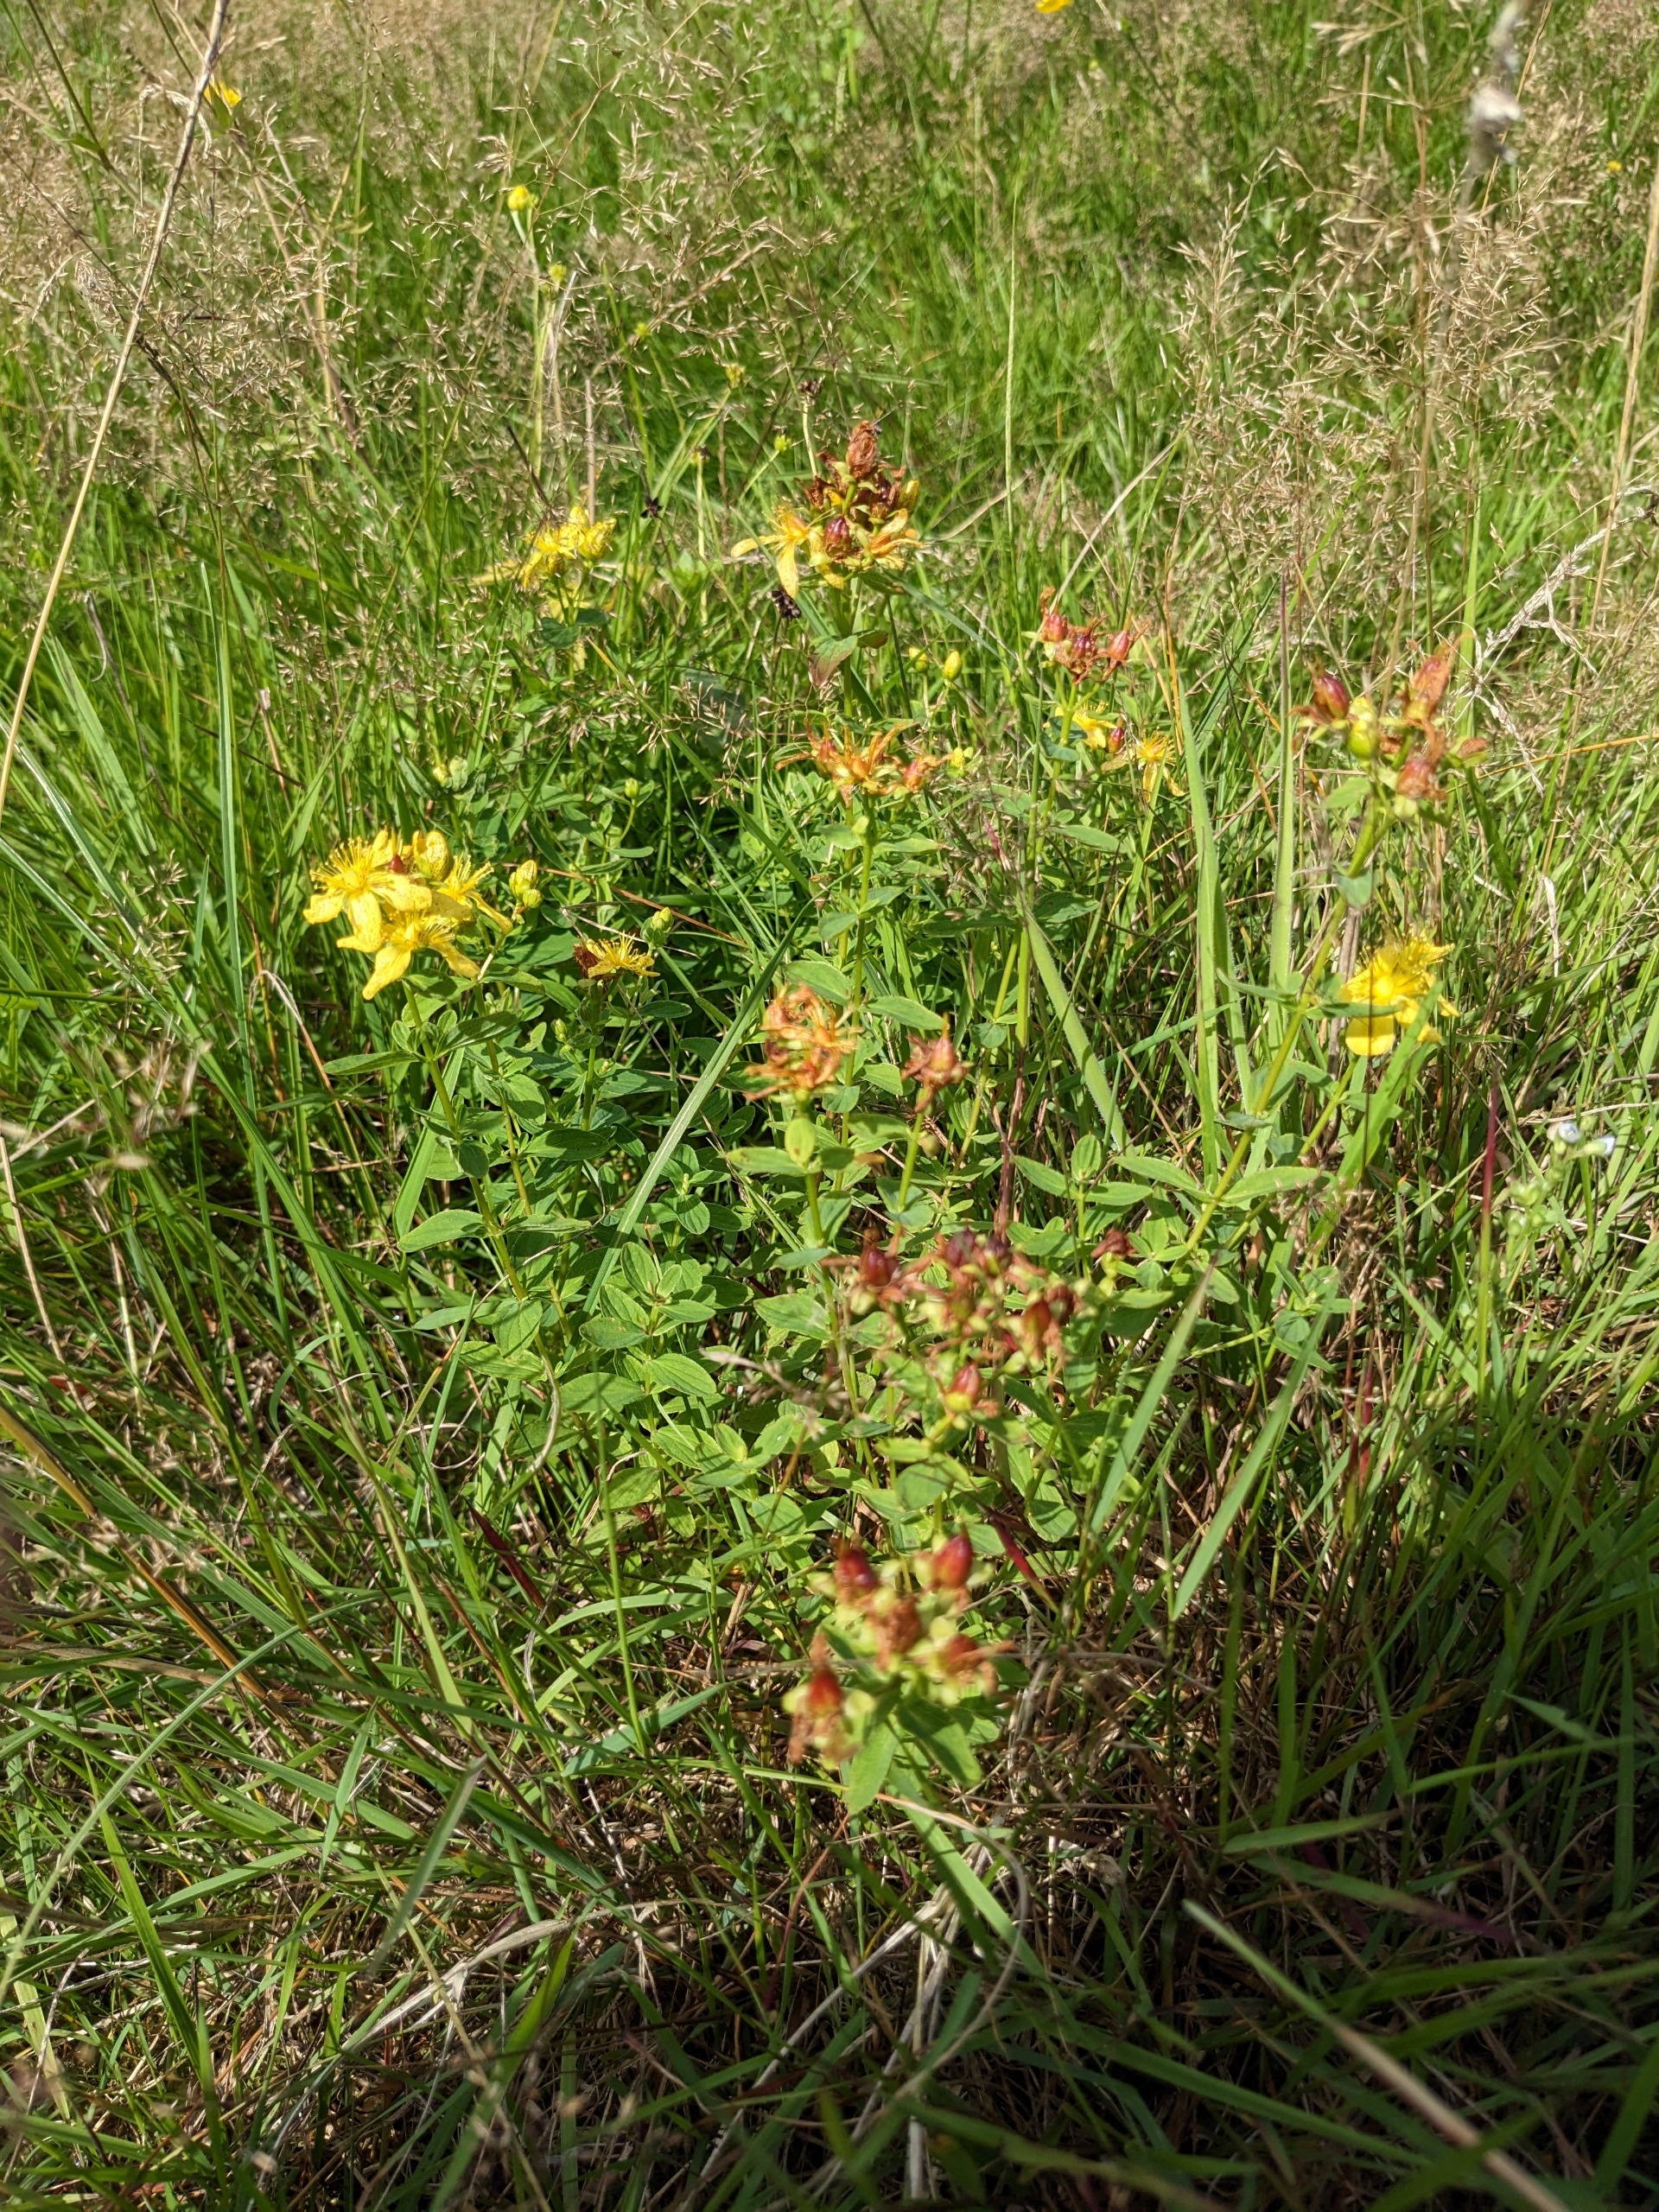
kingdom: Plantae
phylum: Tracheophyta
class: Magnoliopsida
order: Malpighiales
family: Hypericaceae
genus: Hypericum
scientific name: Hypericum maculatum
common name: Kantet perikon
